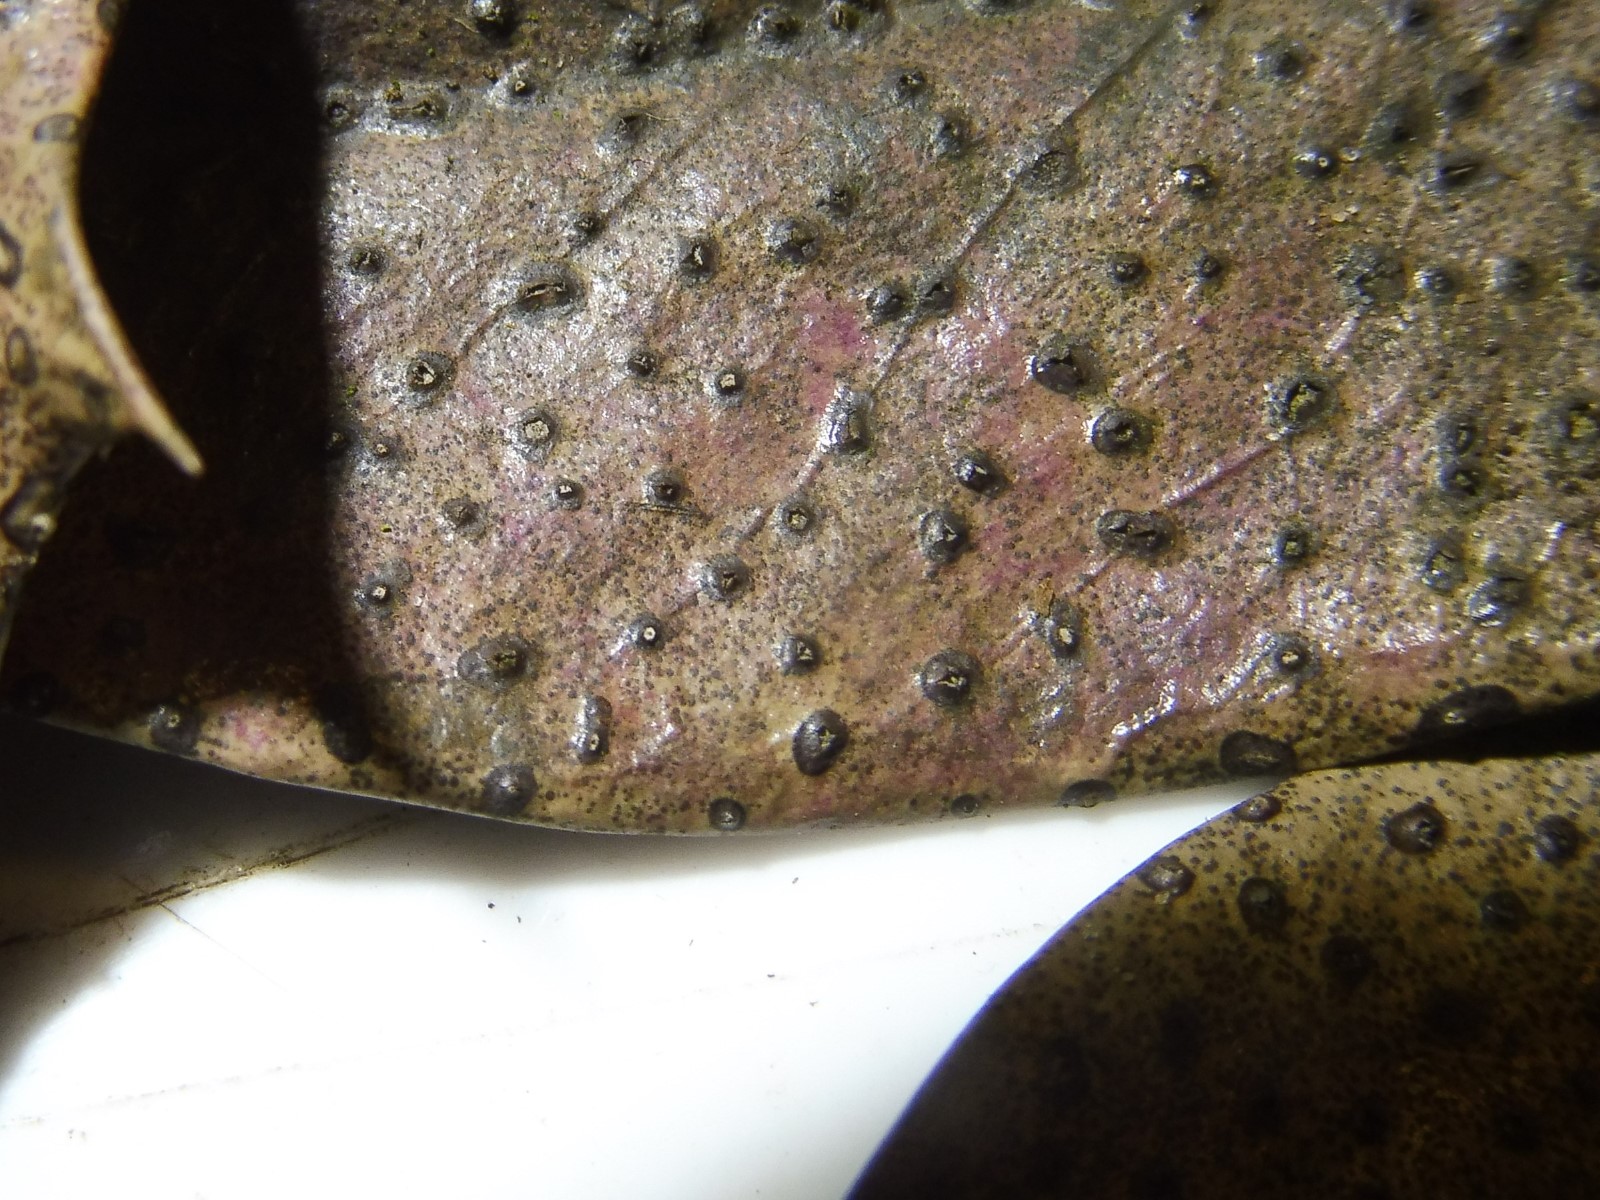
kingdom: Fungi
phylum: Ascomycota
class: Leotiomycetes
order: Phacidiales
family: Phacidiaceae
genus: Phacidium
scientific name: Phacidium lauri
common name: kristtorn-tandskive
